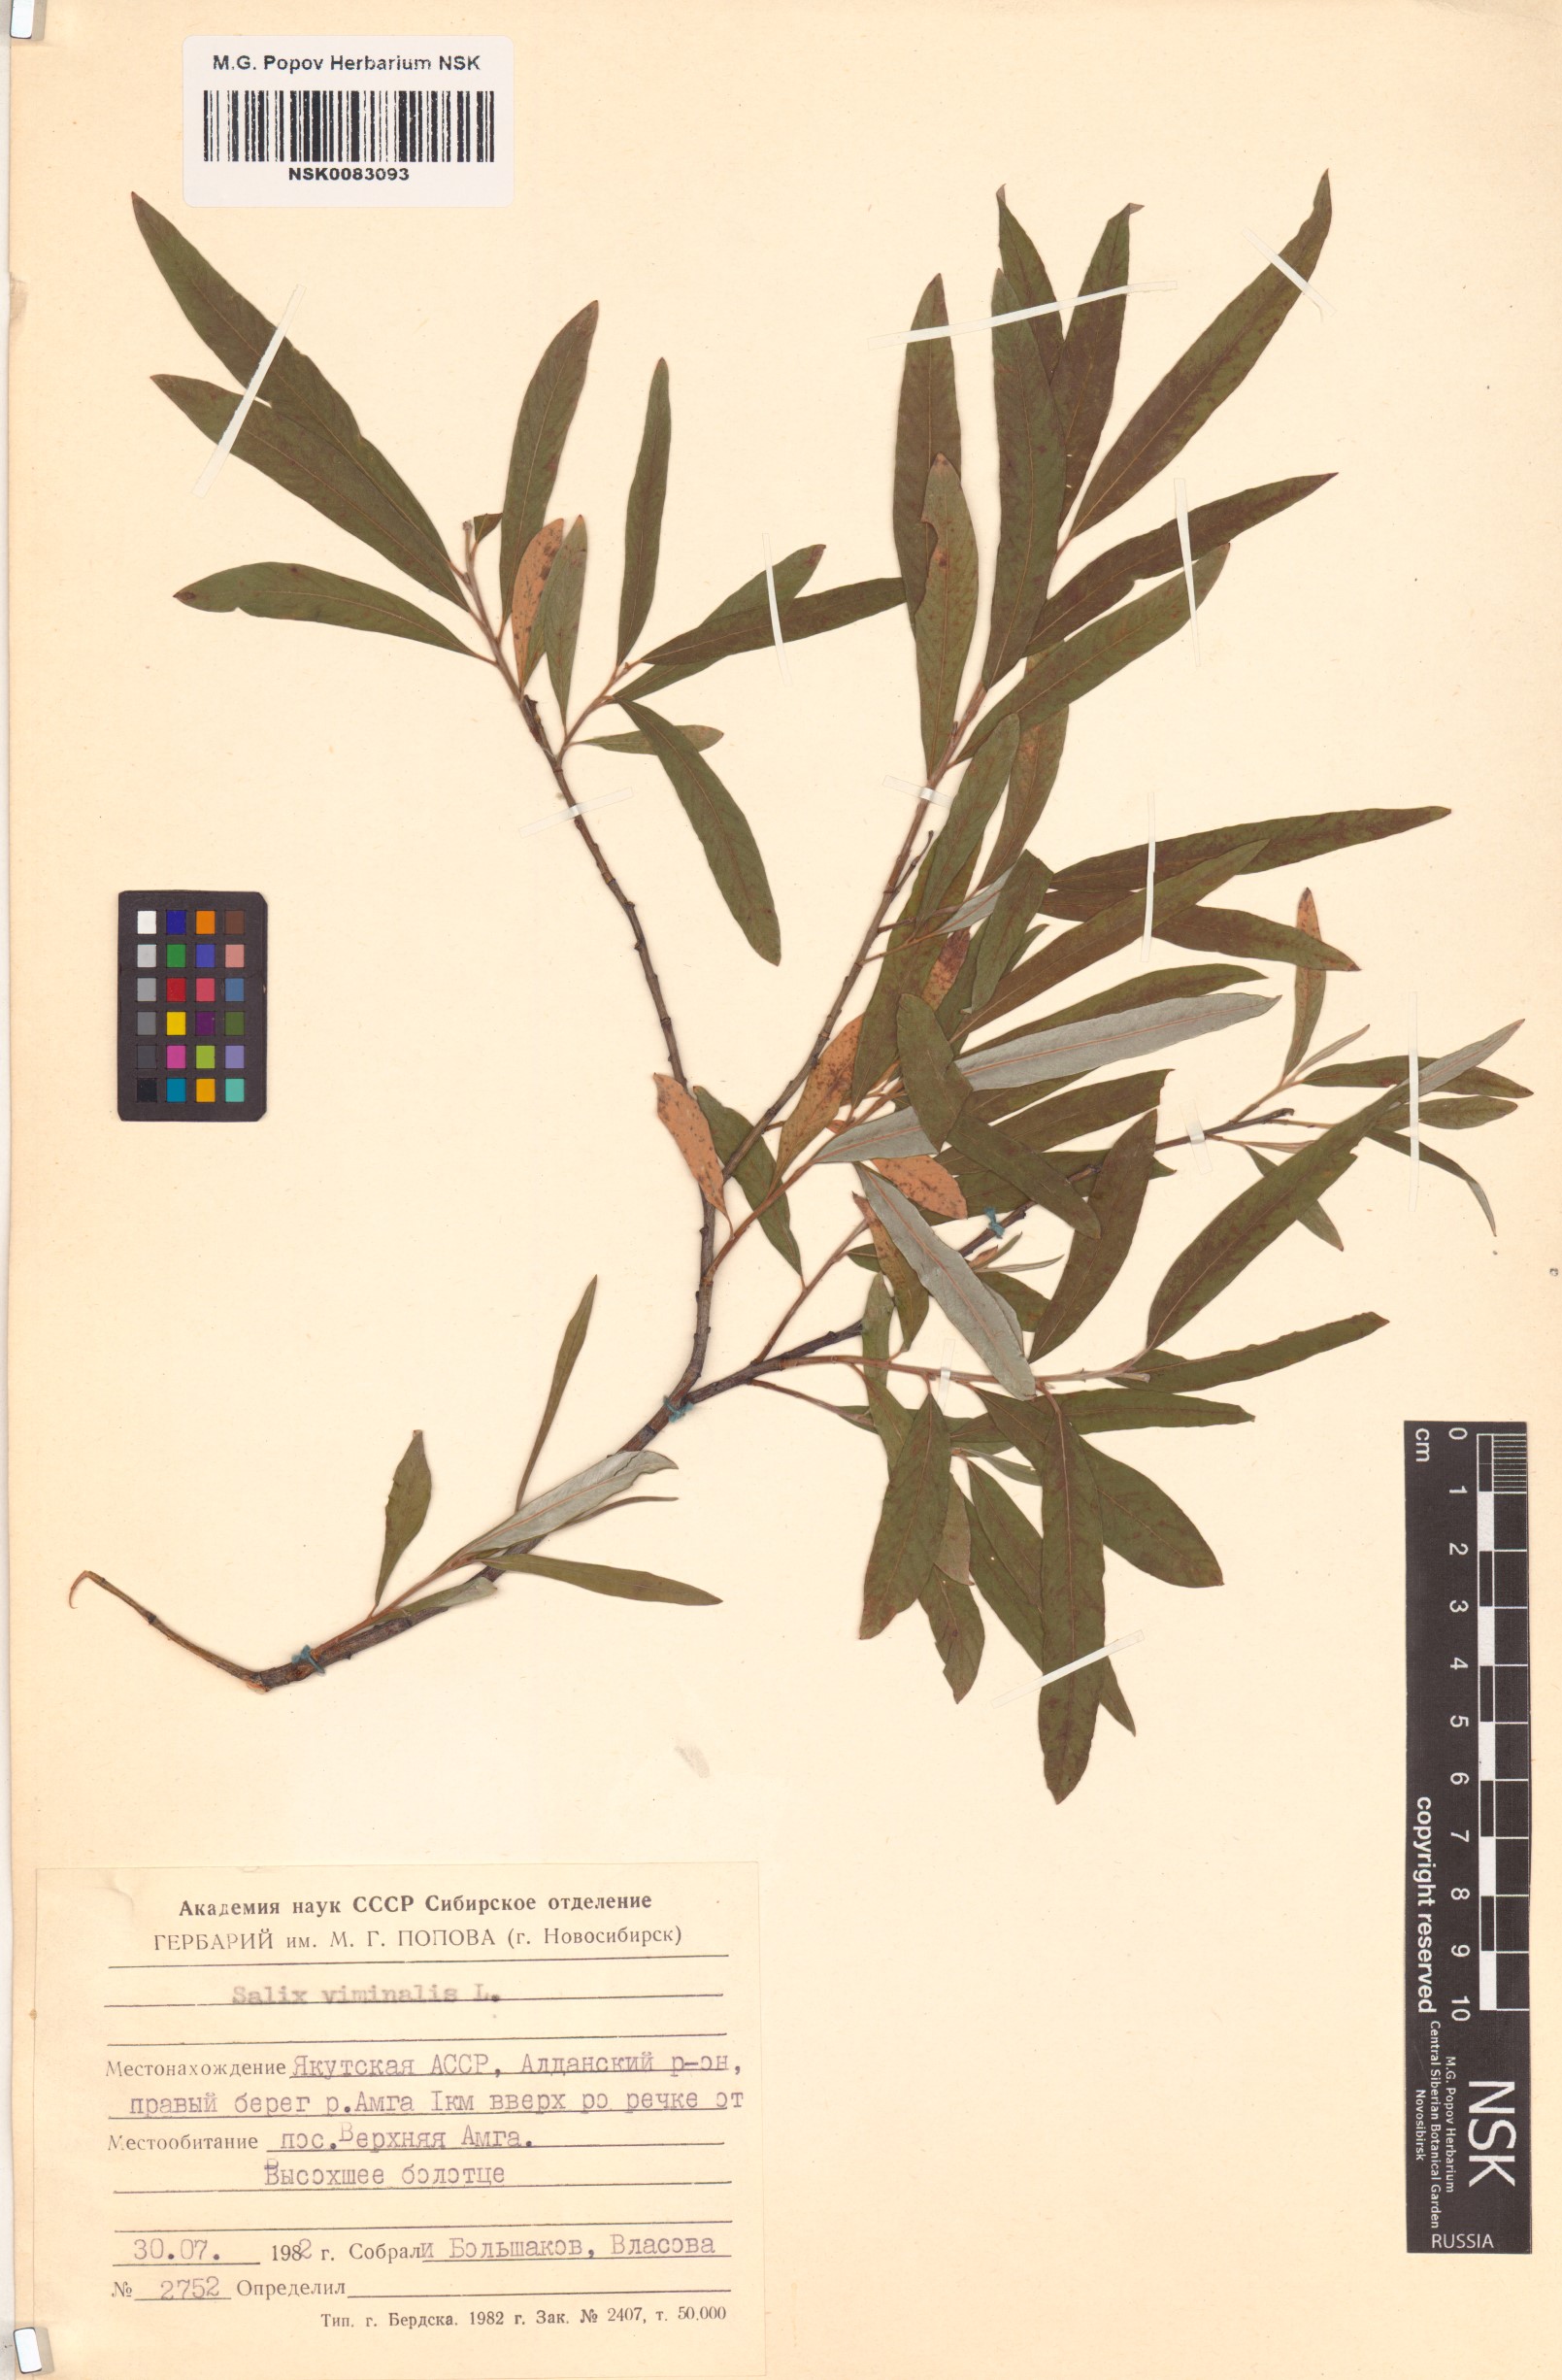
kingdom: Plantae
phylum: Tracheophyta
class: Magnoliopsida
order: Malpighiales
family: Salicaceae
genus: Salix
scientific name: Salix viminalis
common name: Osier
